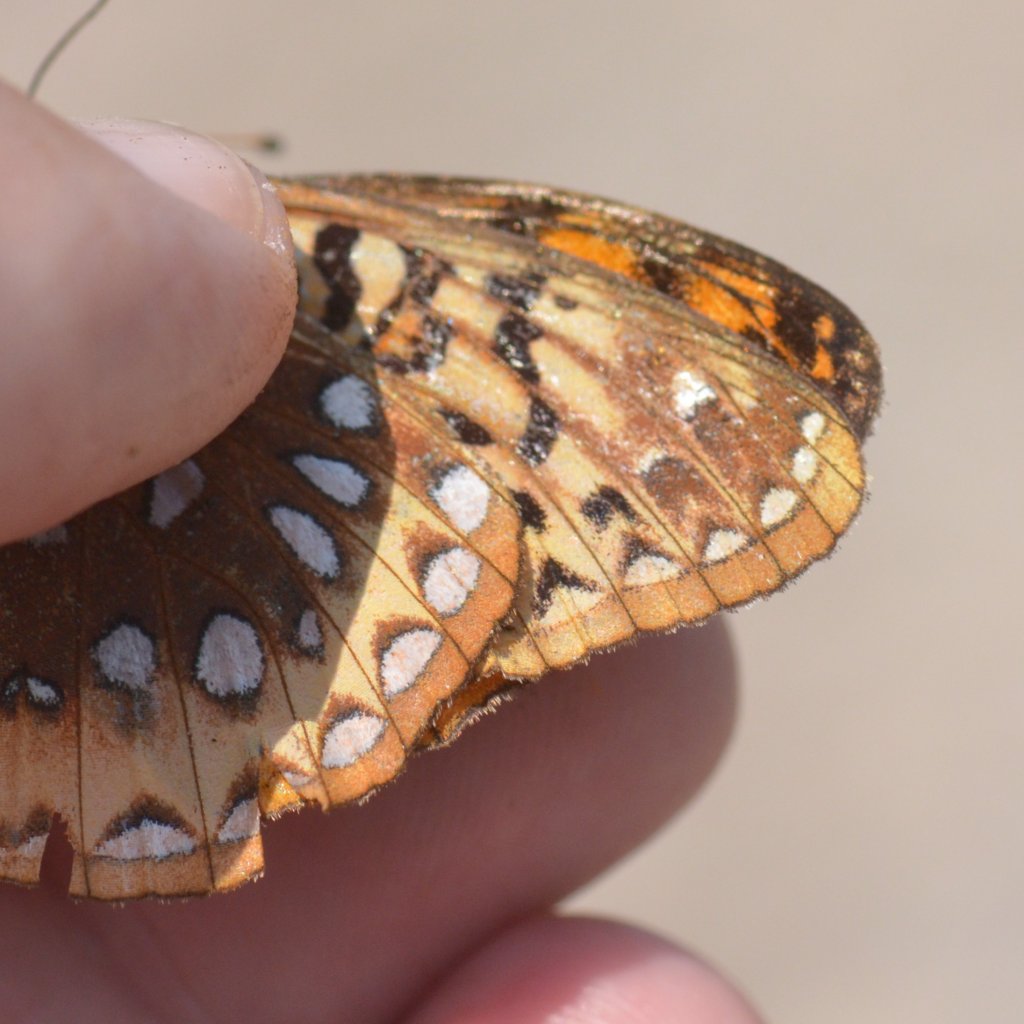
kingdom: Animalia
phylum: Arthropoda
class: Insecta
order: Lepidoptera
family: Nymphalidae
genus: Speyeria
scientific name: Speyeria cybele
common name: Great Spangled Fritillary
